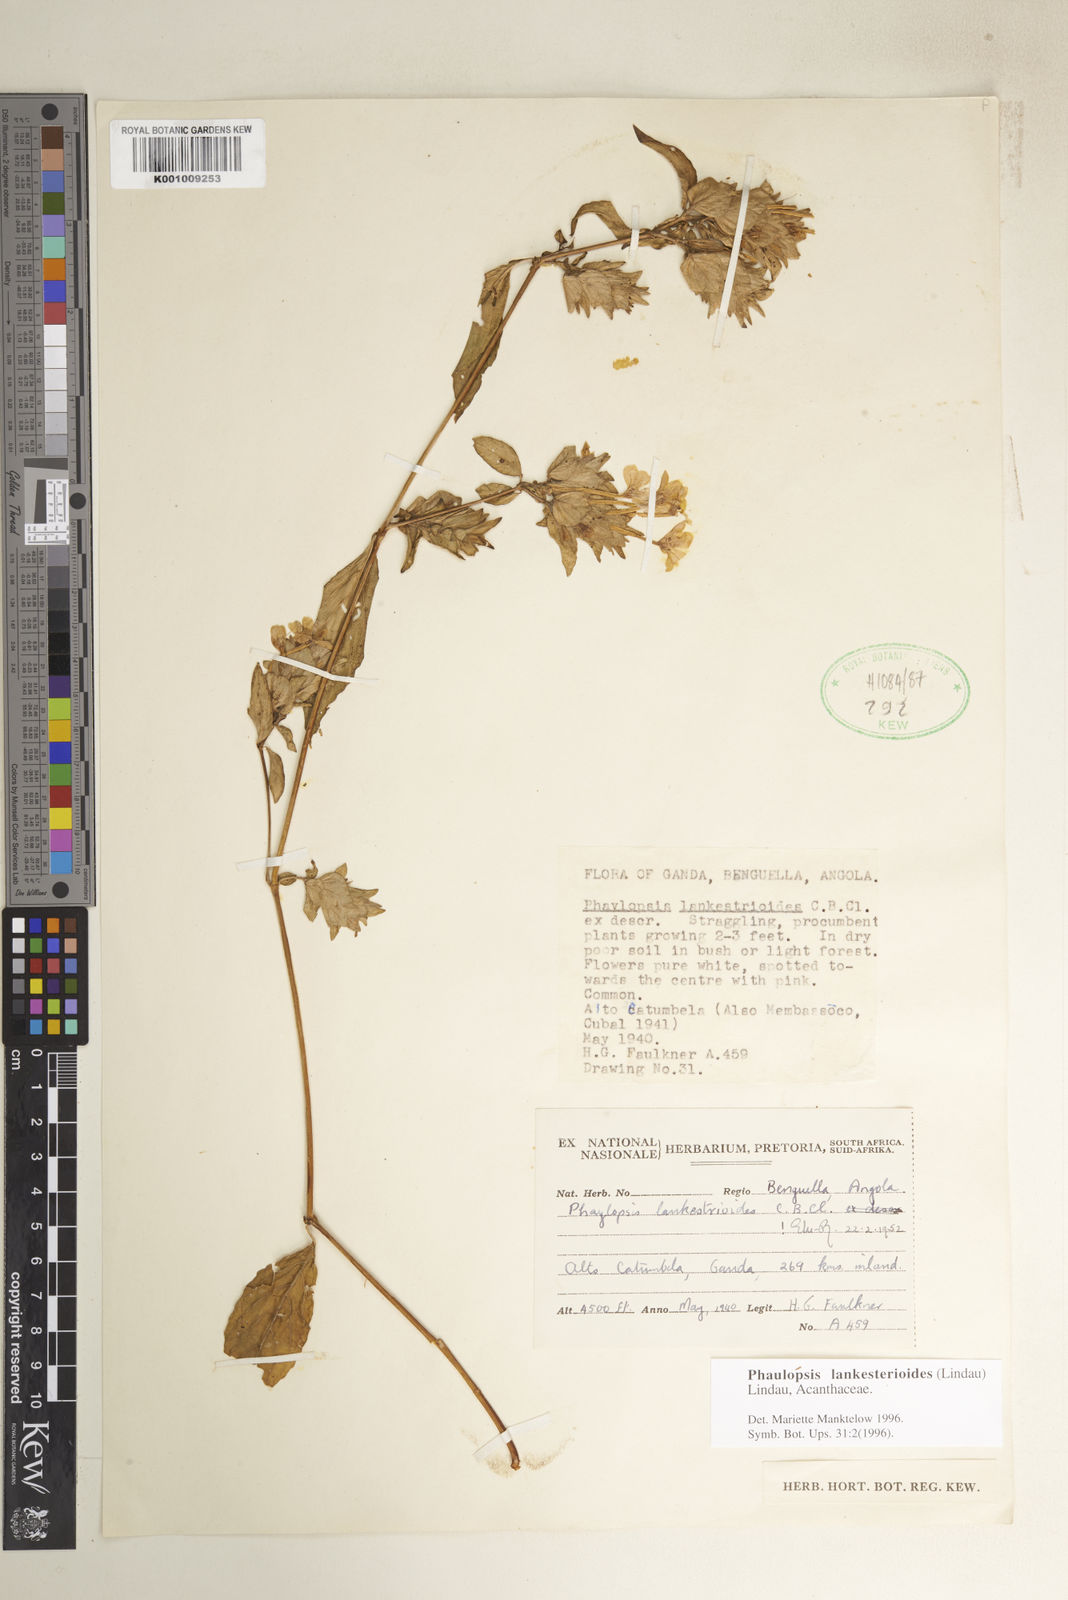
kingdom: Plantae
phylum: Tracheophyta
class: Magnoliopsida
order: Lamiales
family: Acanthaceae
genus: Phaulopsis
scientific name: Phaulopsis lankesterioides
